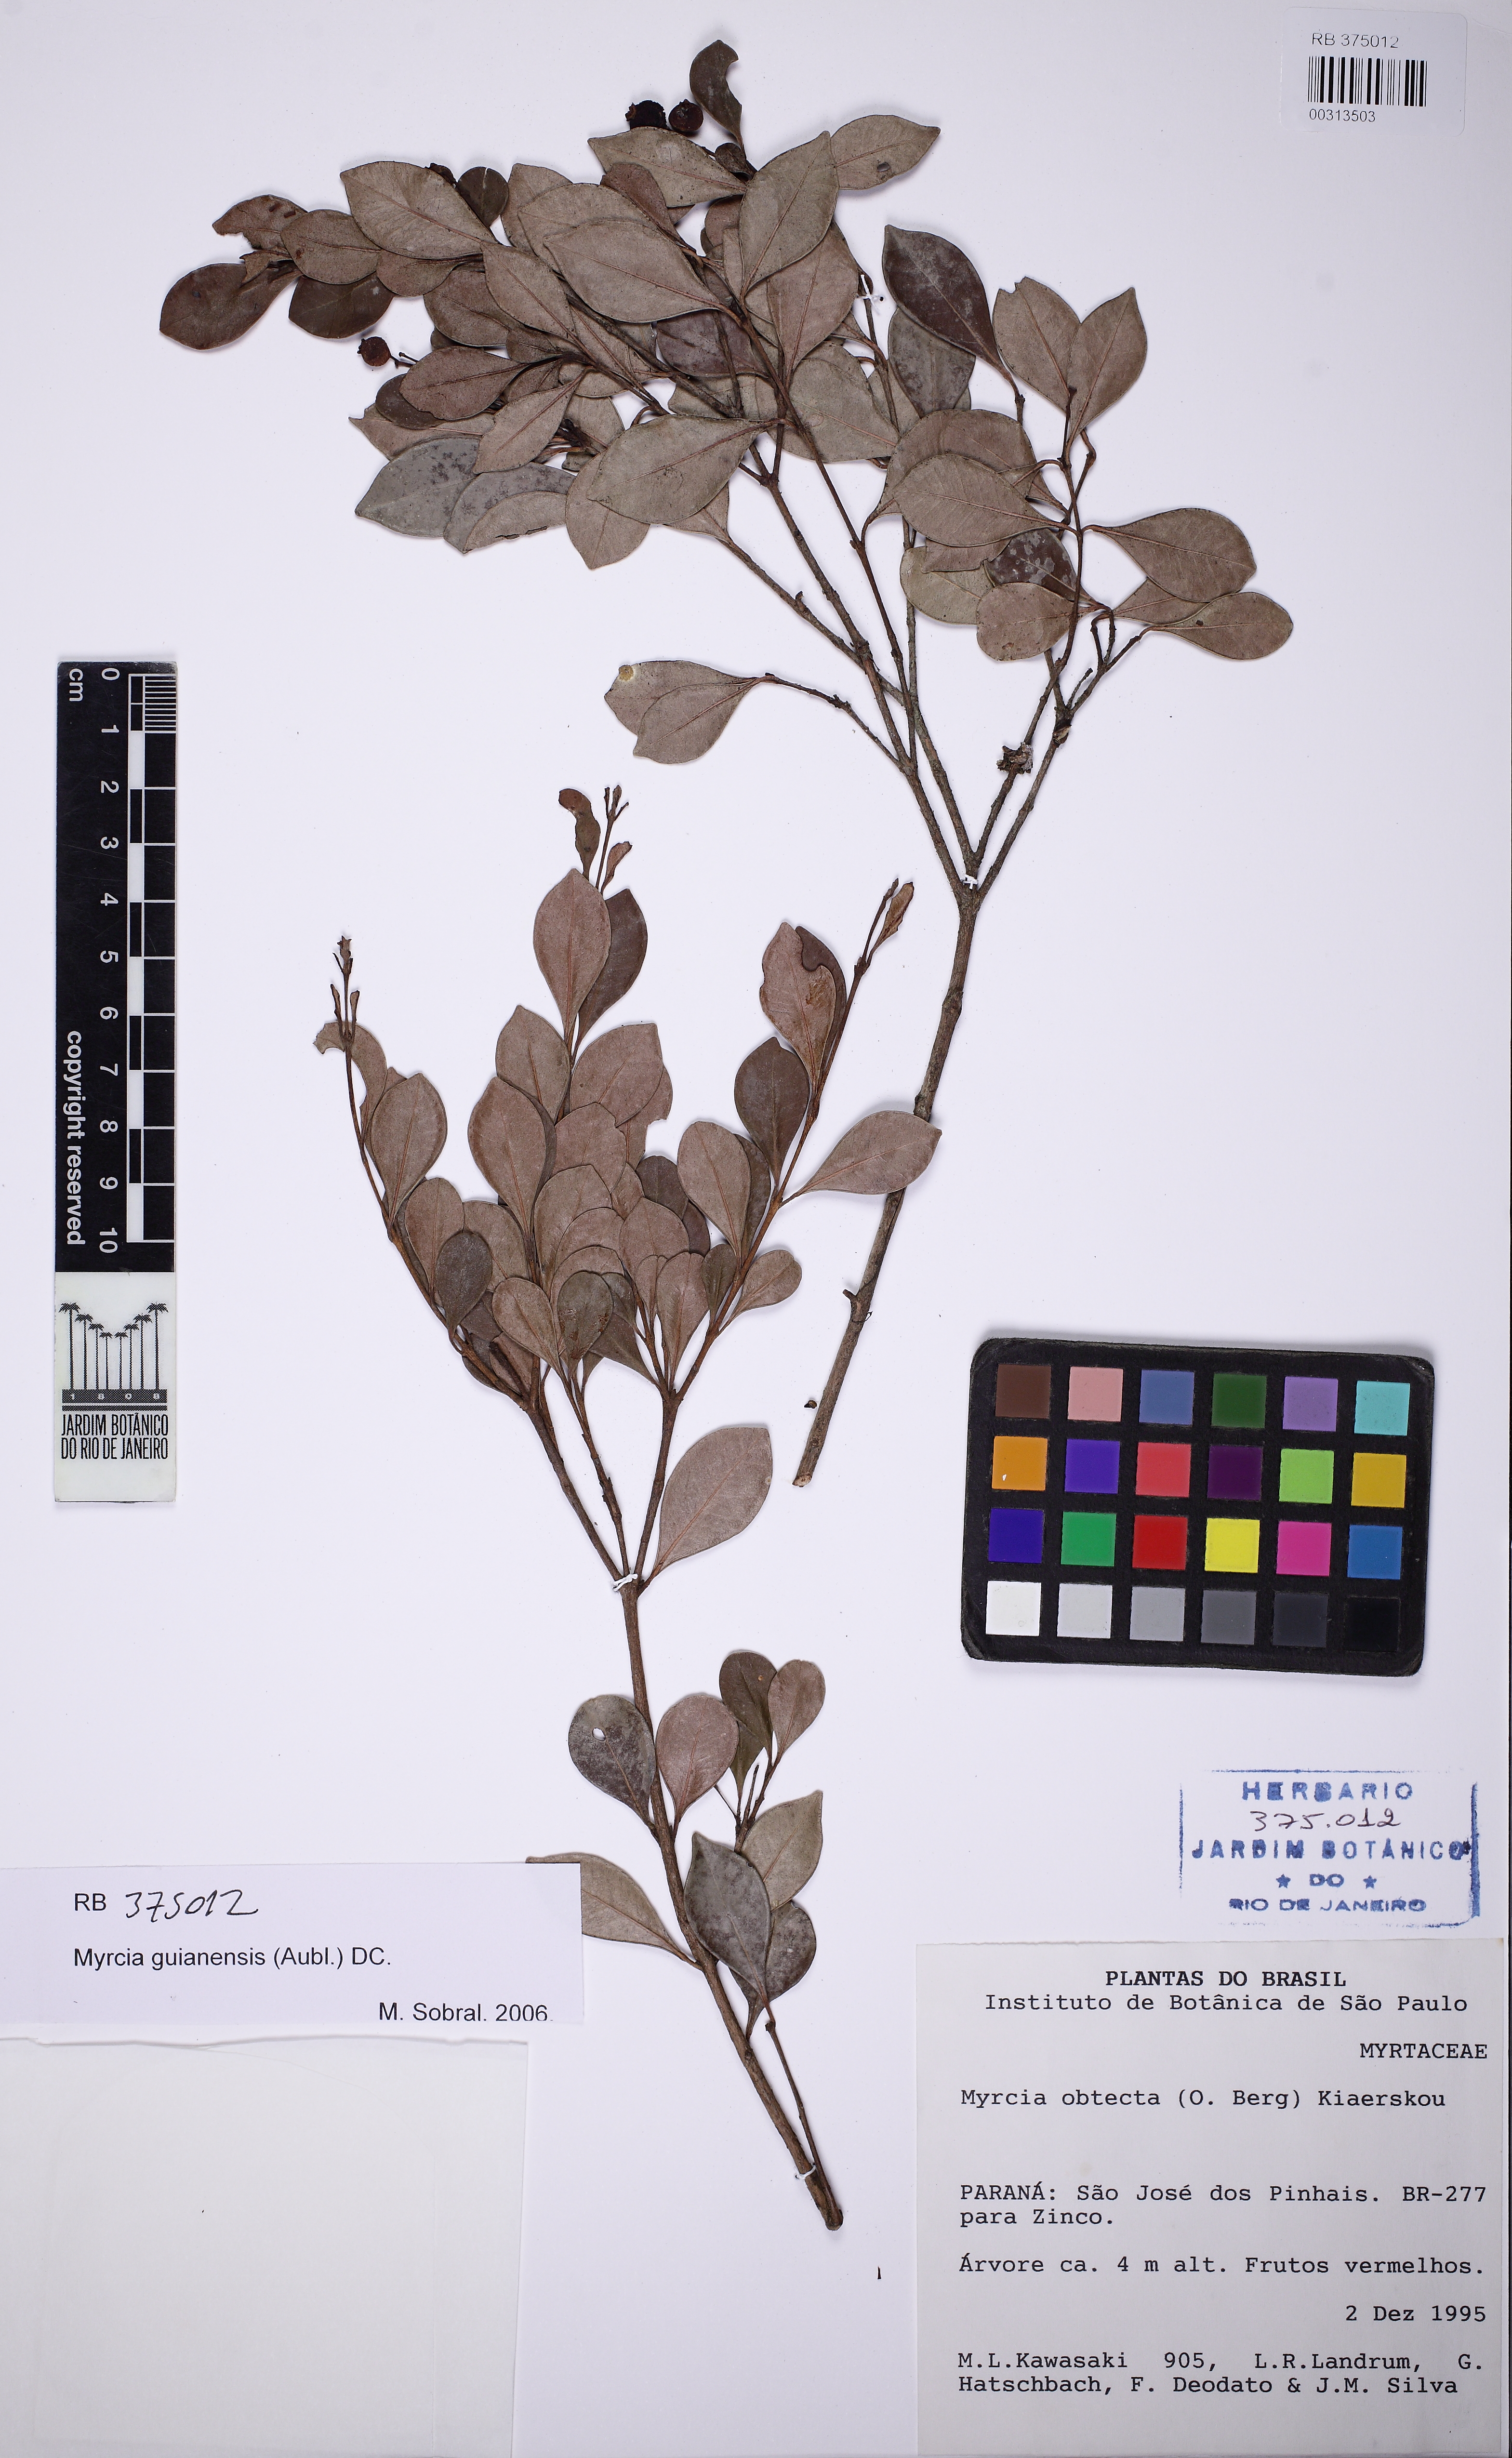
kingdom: Plantae
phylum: Tracheophyta
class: Magnoliopsida
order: Myrtales
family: Myrtaceae
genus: Myrcia
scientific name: Myrcia guianensis
